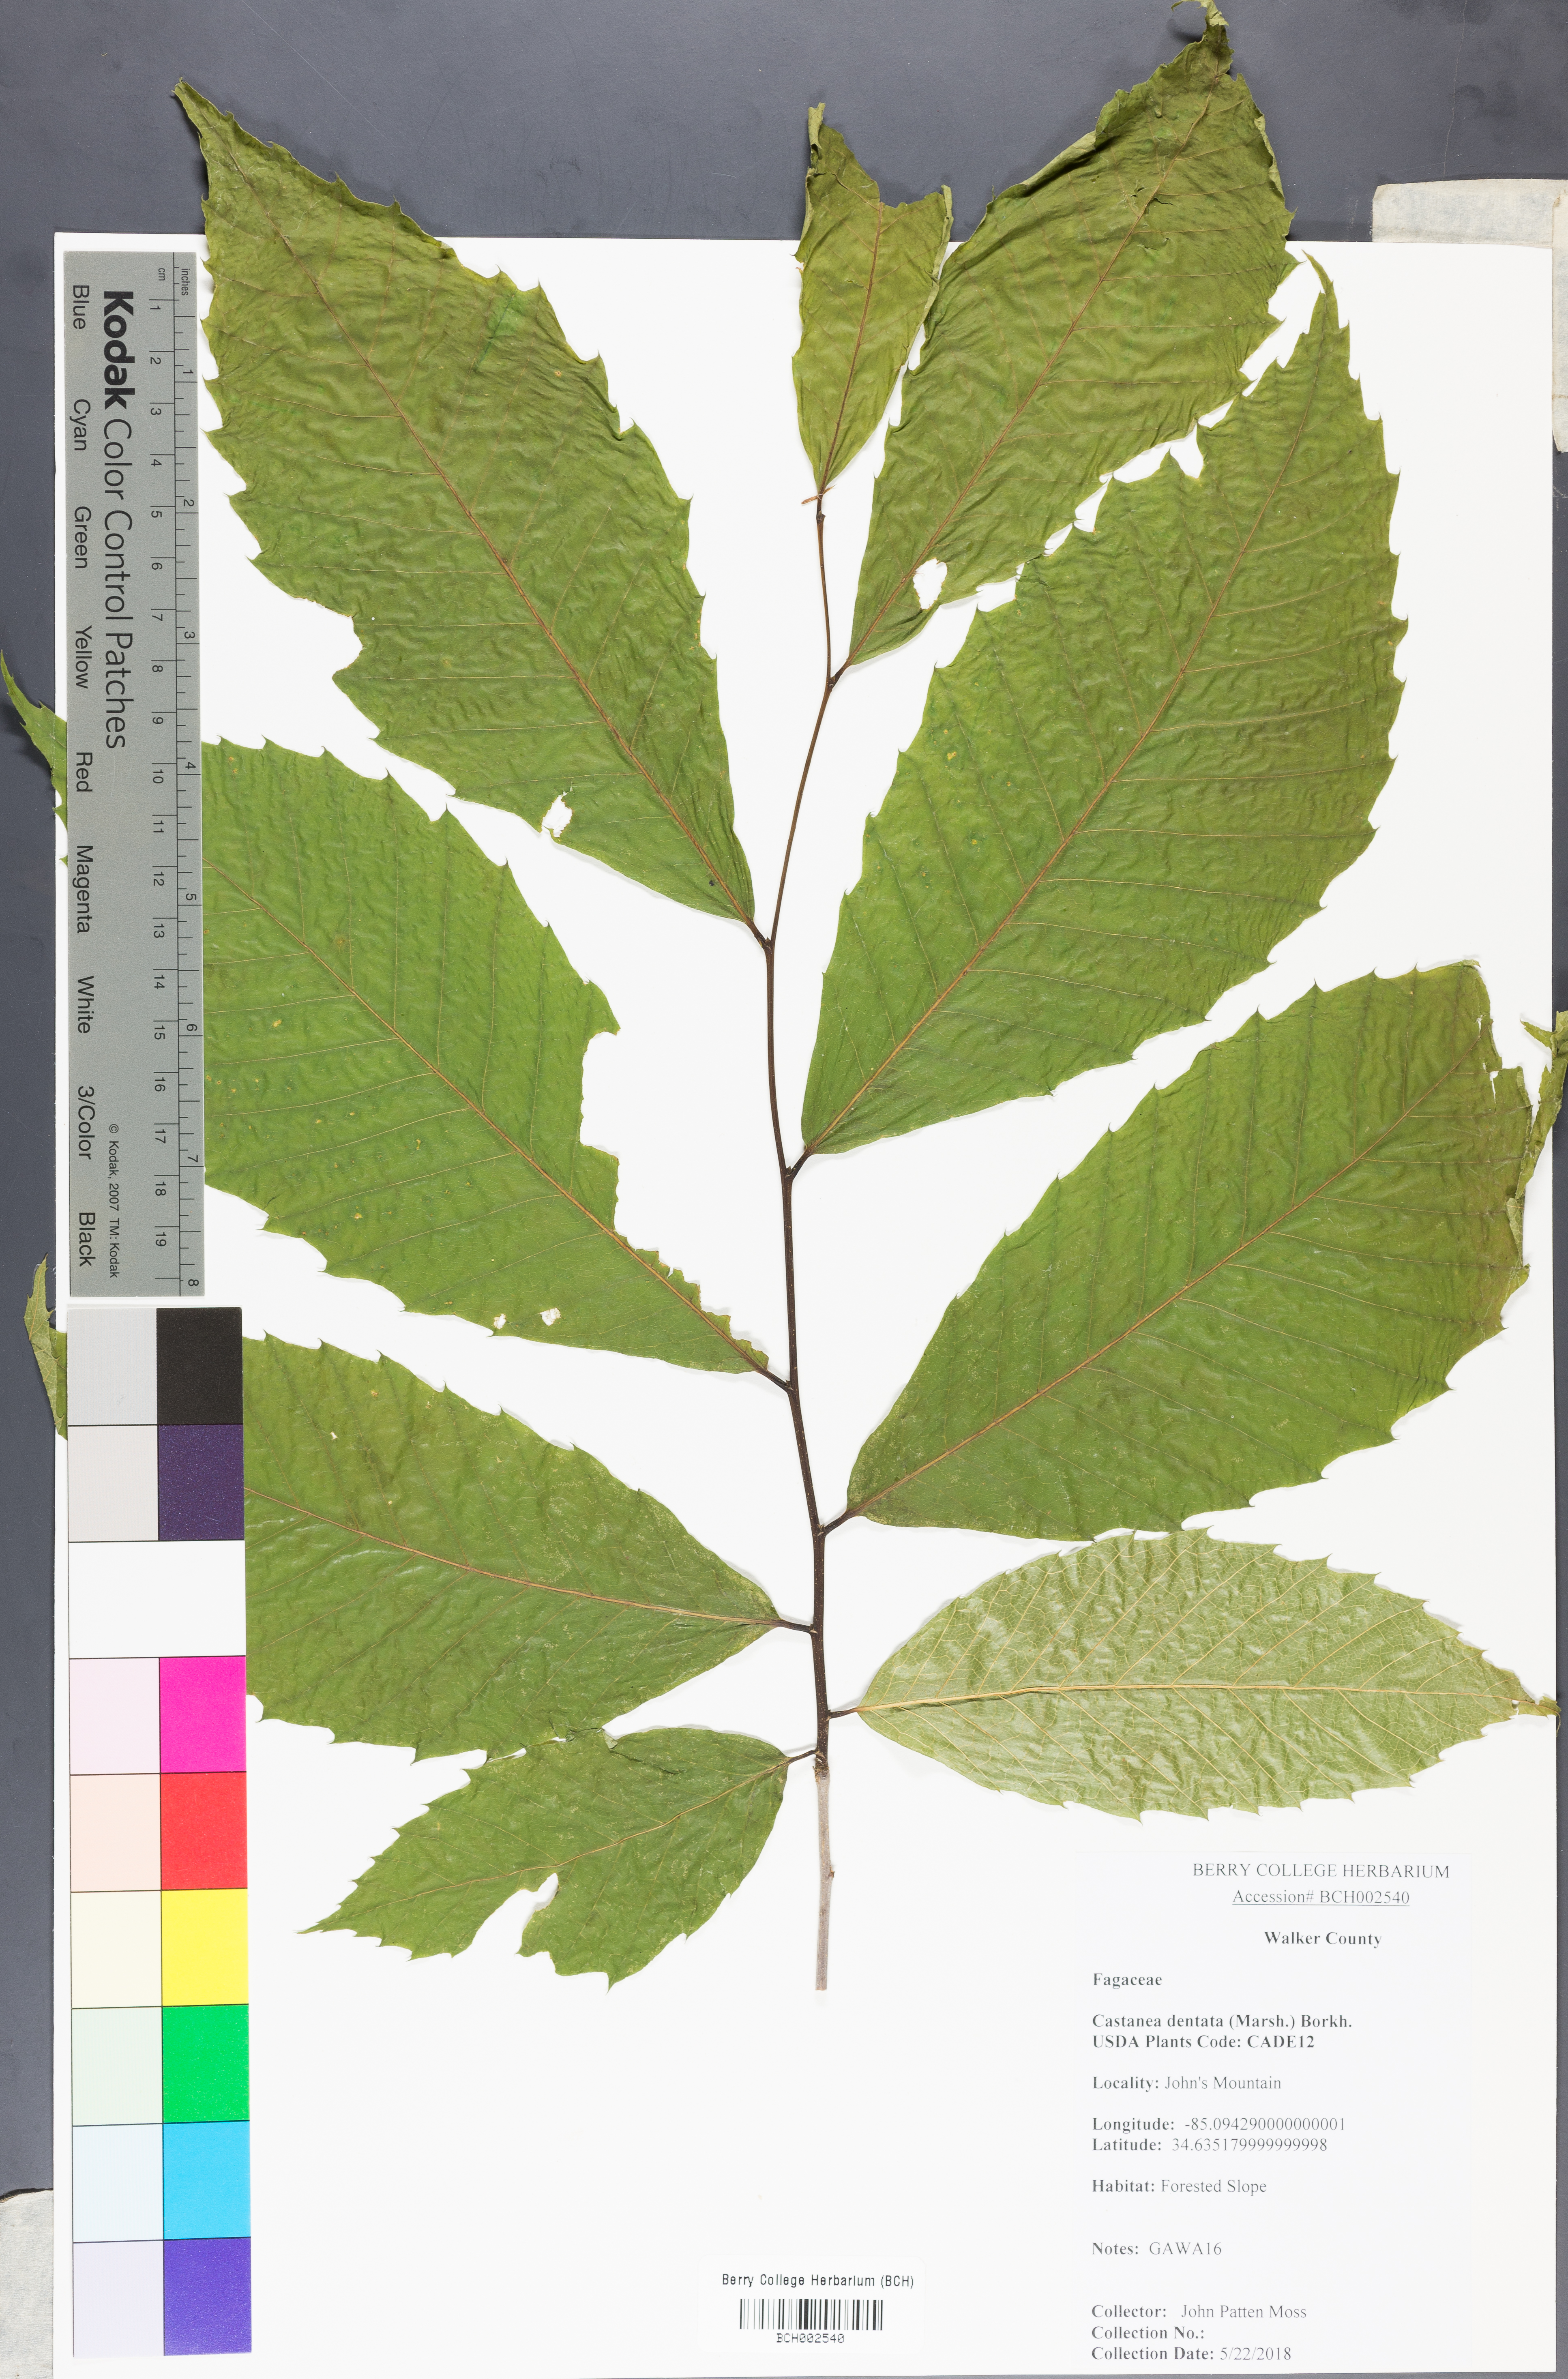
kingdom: Plantae
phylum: Tracheophyta
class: Magnoliopsida
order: Fagales
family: Fagaceae
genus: Castanea
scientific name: Castanea dentata
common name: American chestnut
